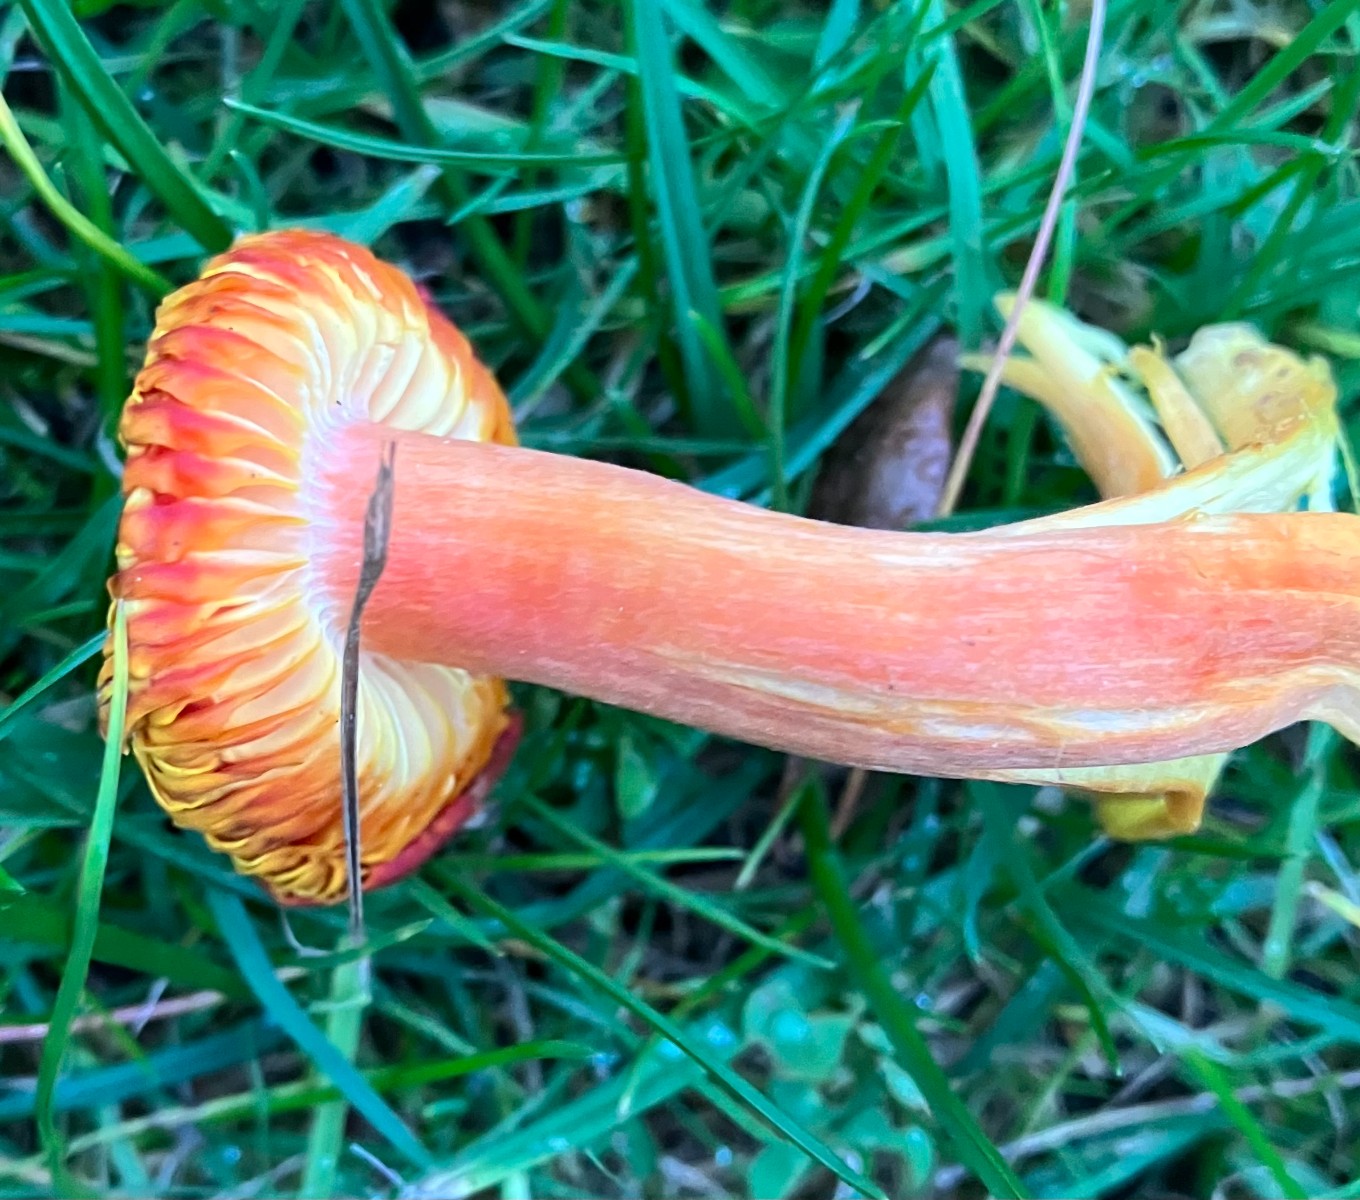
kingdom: Fungi
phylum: Basidiomycota
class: Agaricomycetes
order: Agaricales
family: Hygrophoraceae
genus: Hygrocybe
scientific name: Hygrocybe splendidissima
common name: knaldrød vokshat
